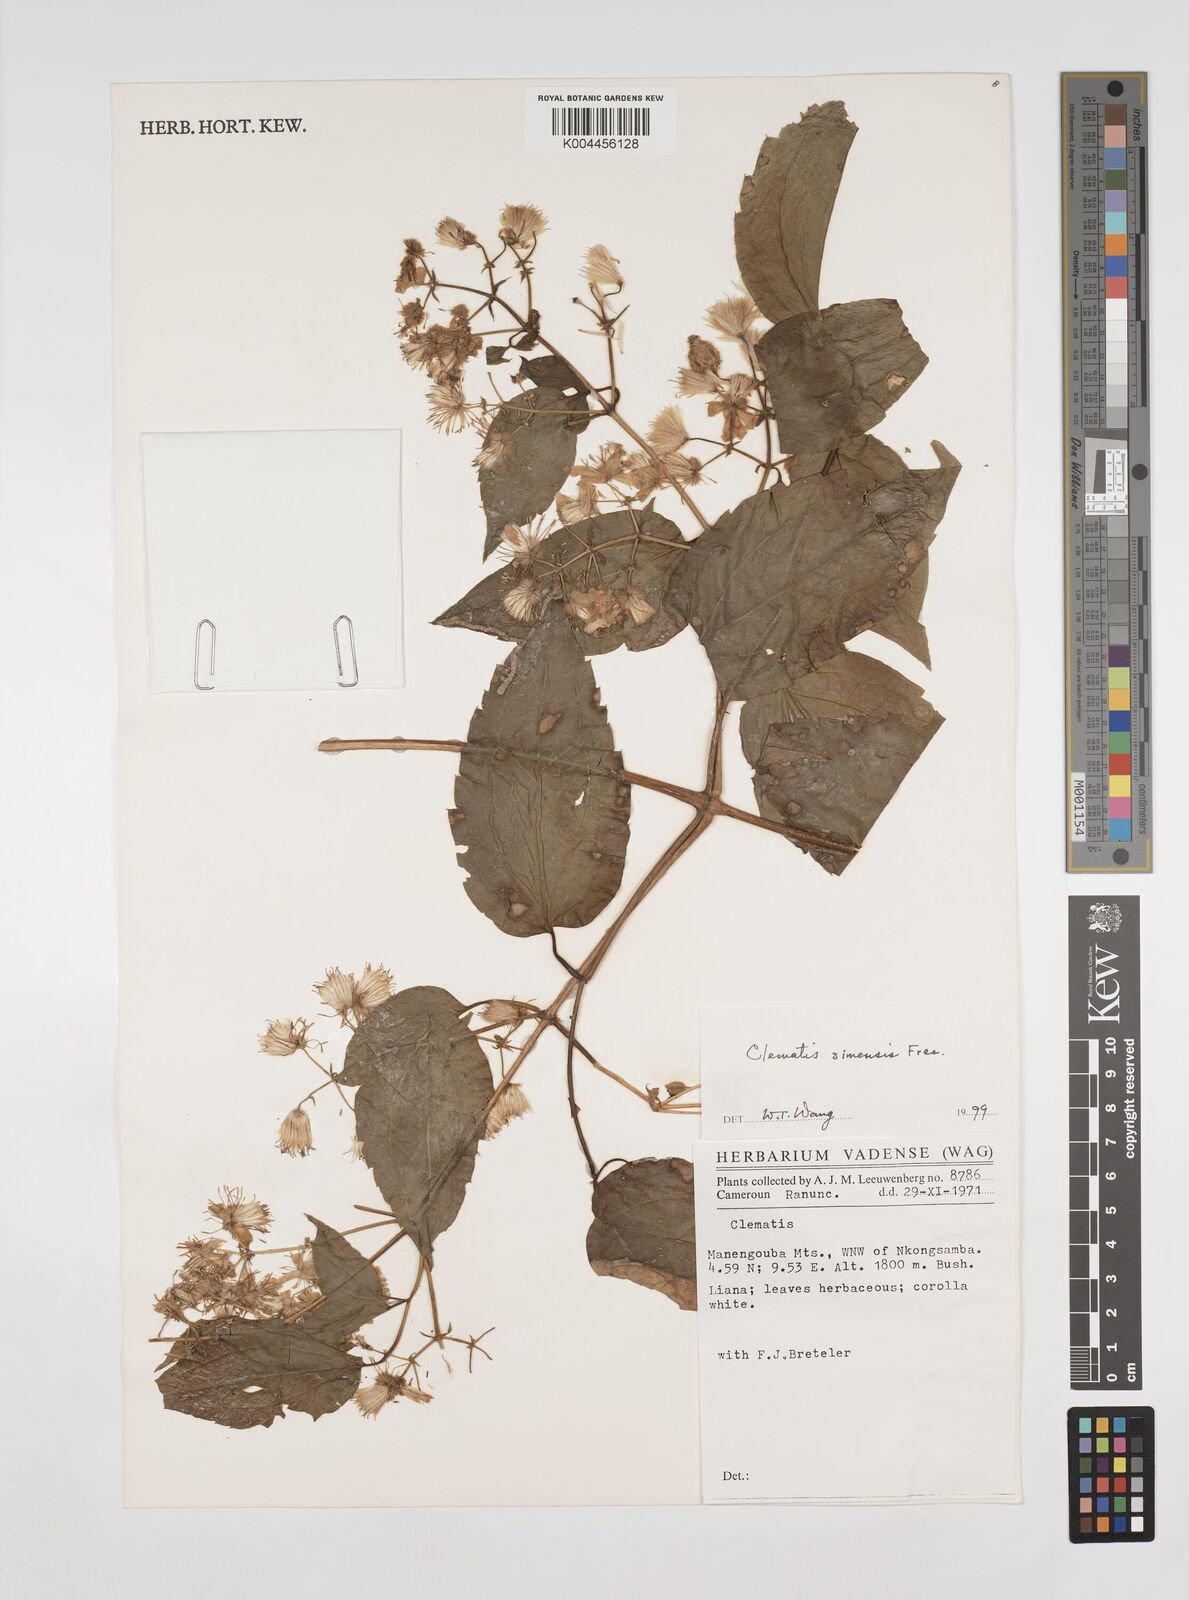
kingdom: Plantae
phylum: Tracheophyta
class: Magnoliopsida
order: Ranunculales
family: Ranunculaceae
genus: Clematis
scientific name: Clematis simensis
